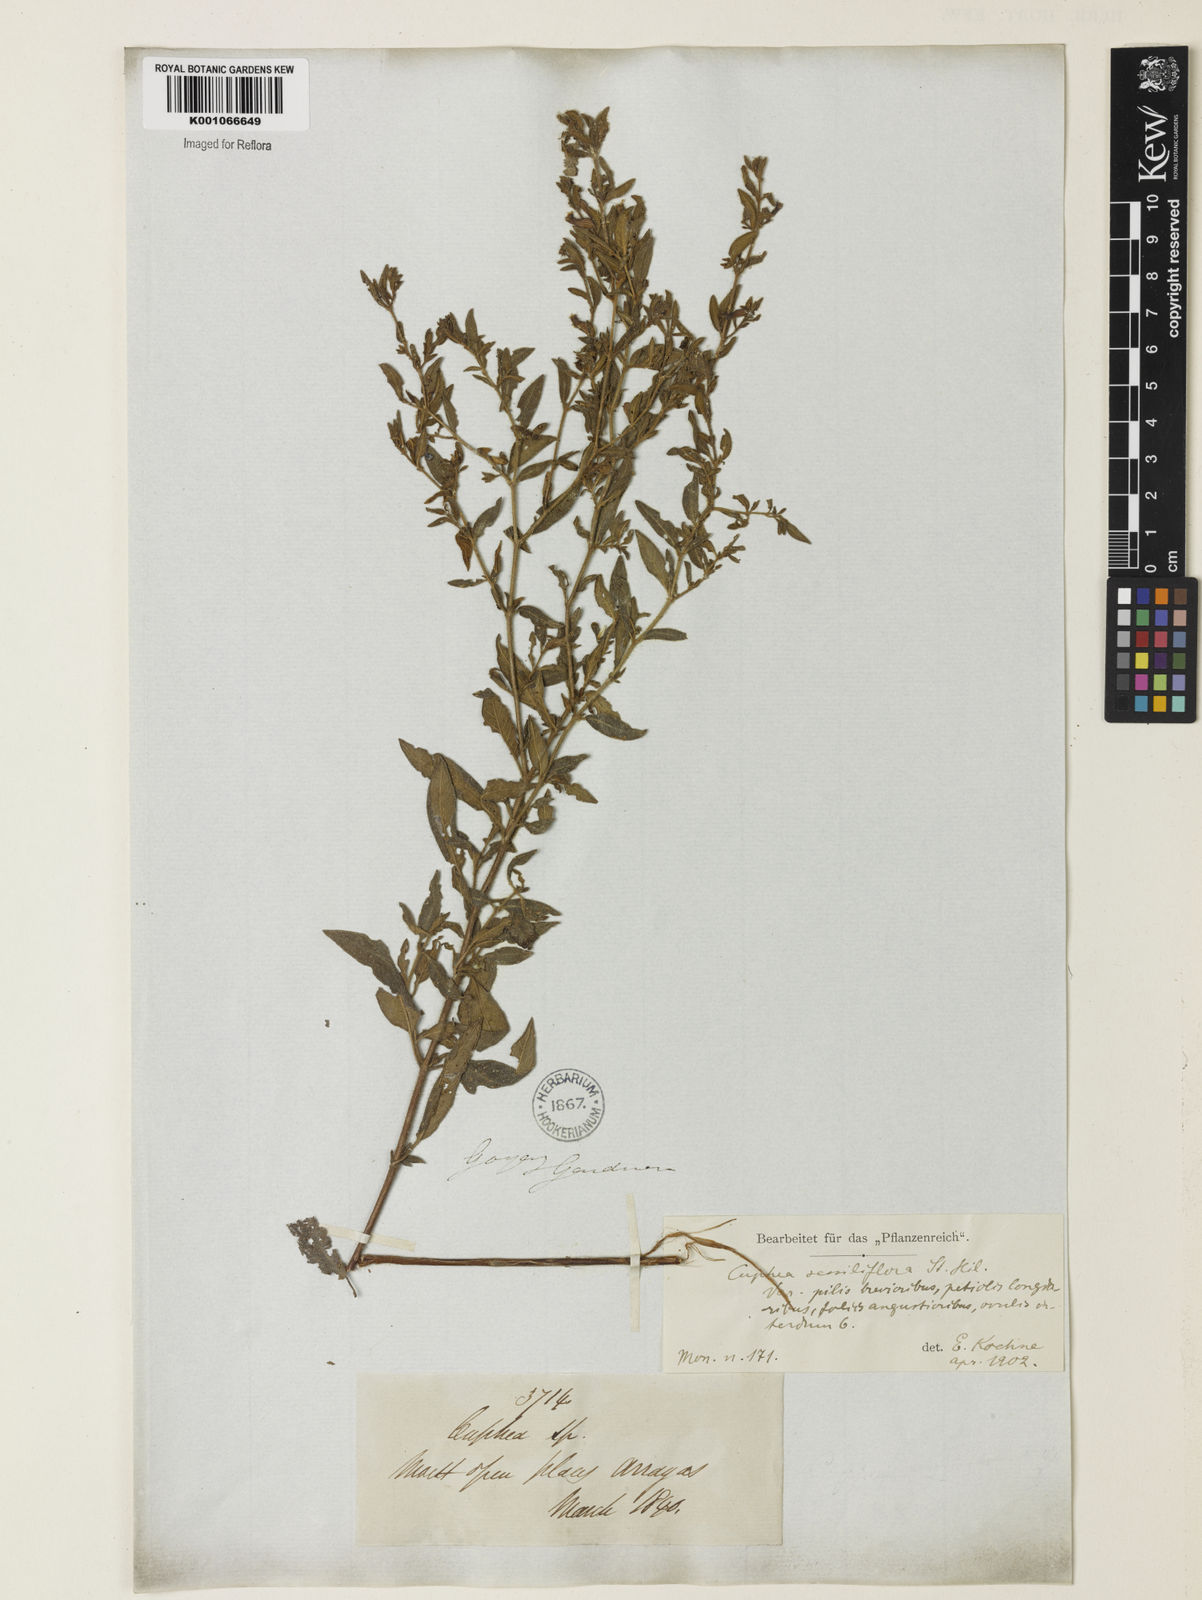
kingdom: Plantae
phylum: Tracheophyta
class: Magnoliopsida
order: Myrtales
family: Lythraceae
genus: Cuphea
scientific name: Cuphea sessiliflora
